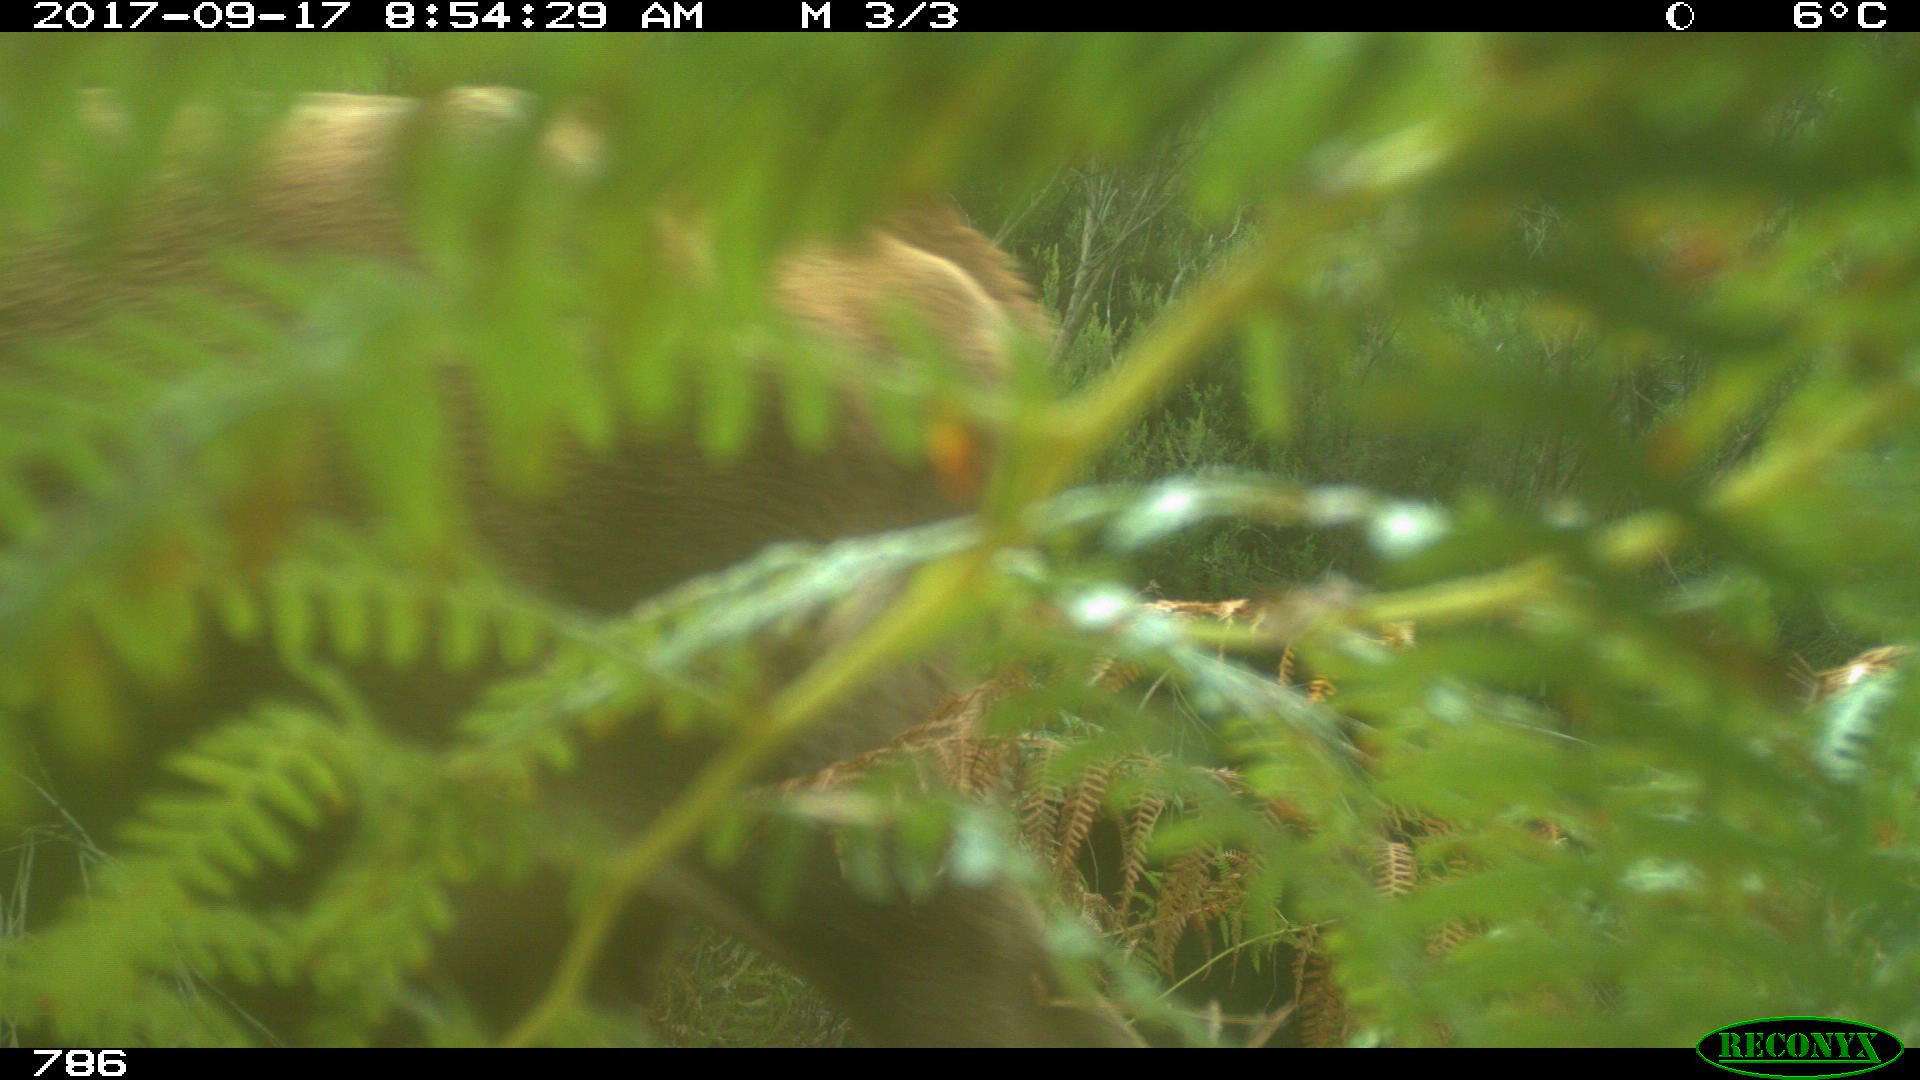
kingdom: Animalia
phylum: Chordata
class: Mammalia
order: Artiodactyla
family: Bovidae
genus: Bos
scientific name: Bos taurus
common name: Domesticated cattle
